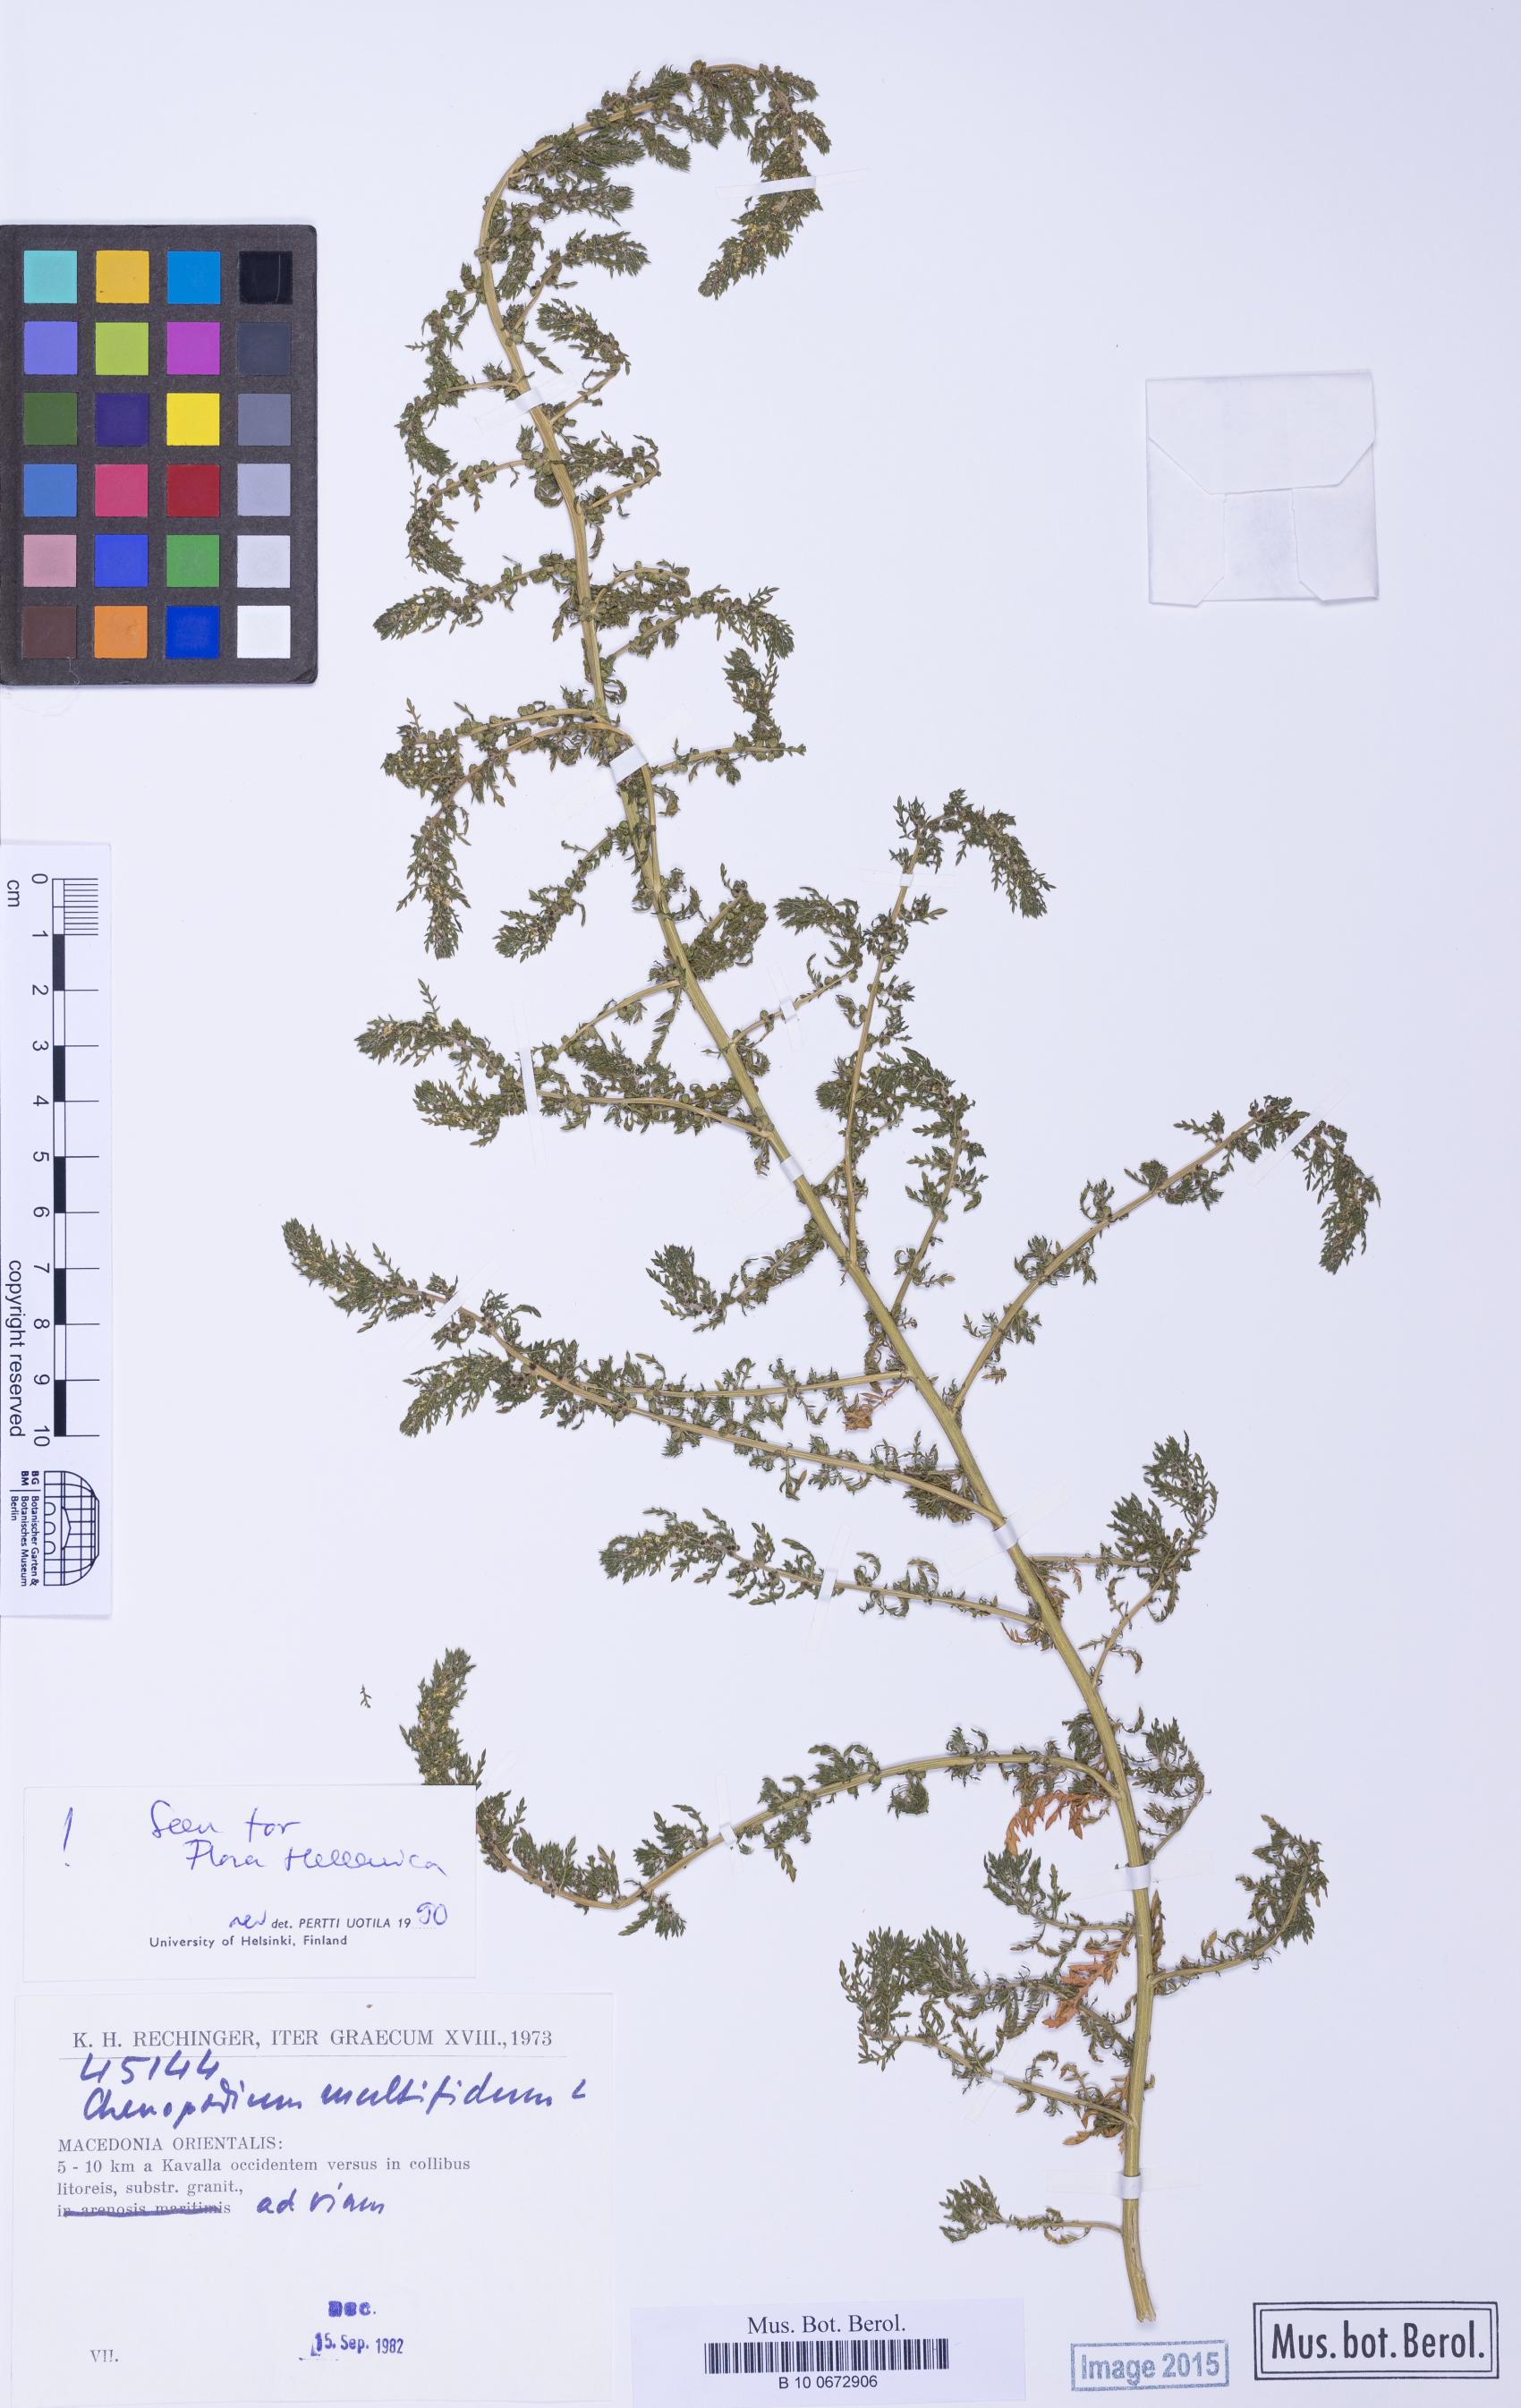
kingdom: Plantae
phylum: Tracheophyta
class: Magnoliopsida
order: Caryophyllales
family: Amaranthaceae
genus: Dysphania
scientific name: Dysphania multifida
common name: Cutleaf goosefoot
